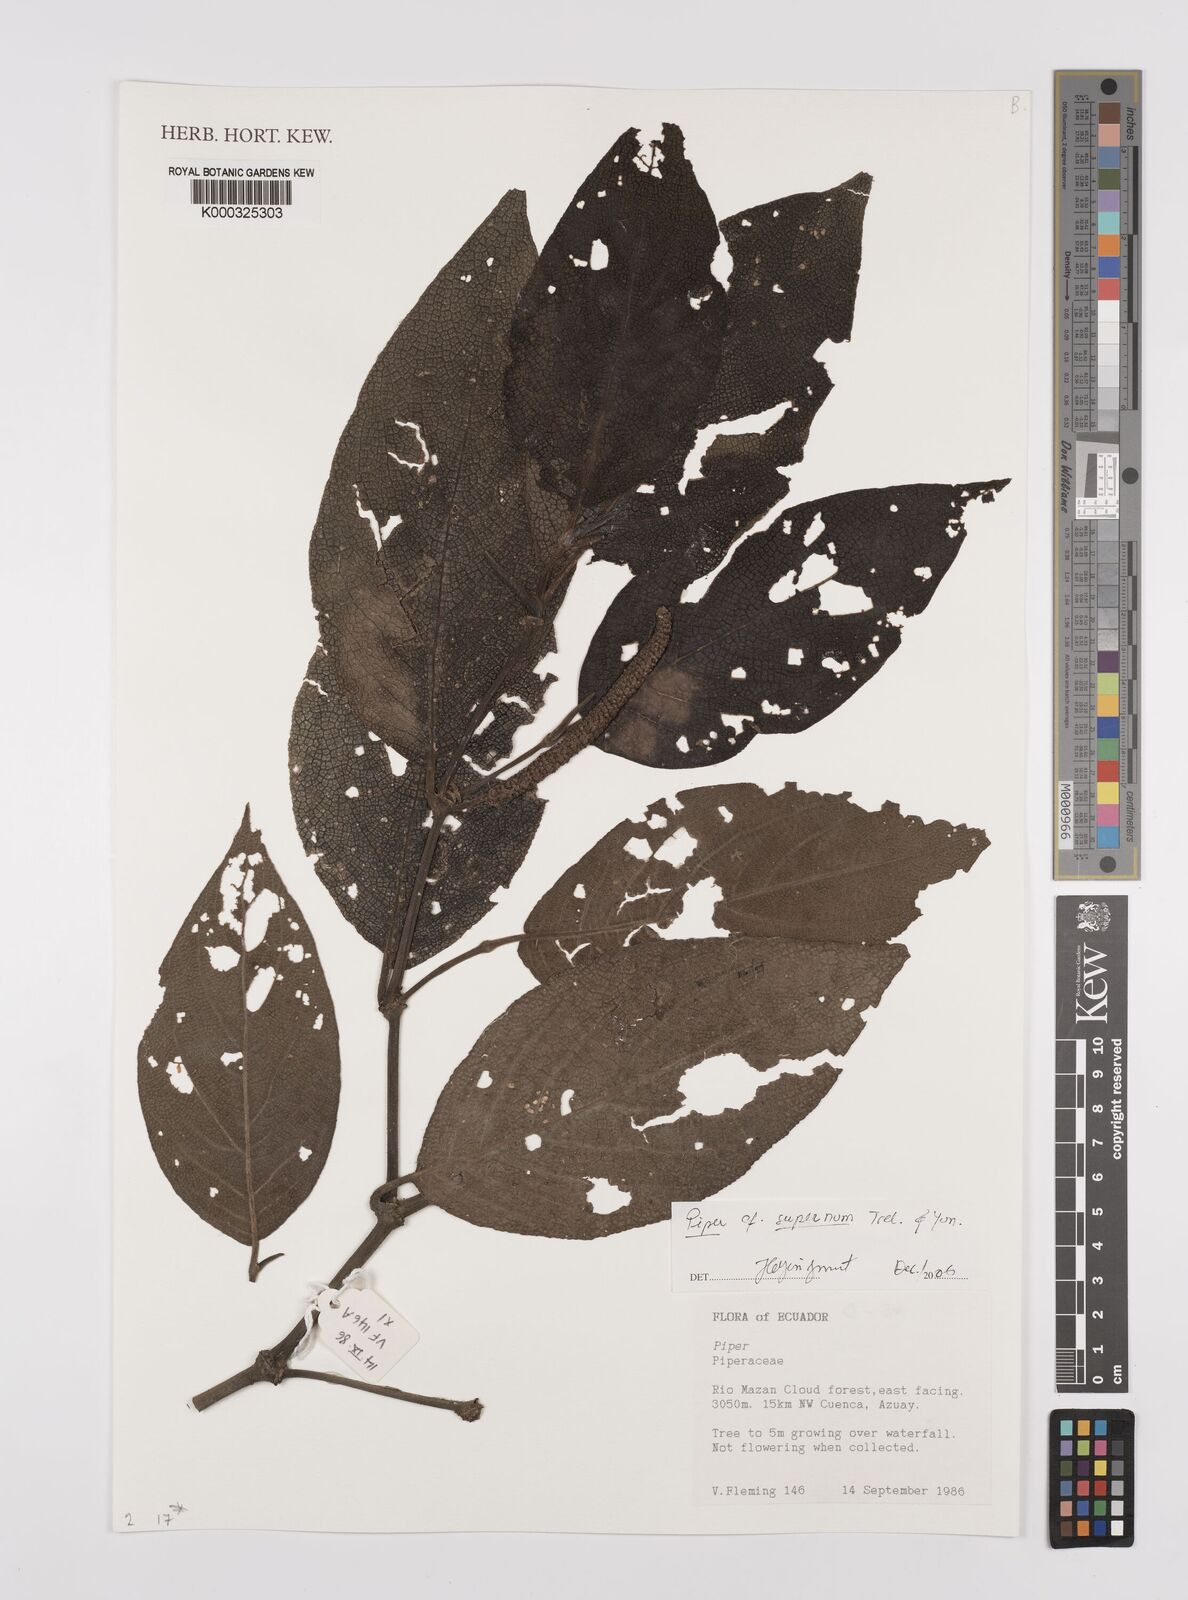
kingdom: Plantae
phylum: Tracheophyta
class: Magnoliopsida
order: Piperales
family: Piperaceae
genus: Piper
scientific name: Piper supernum
